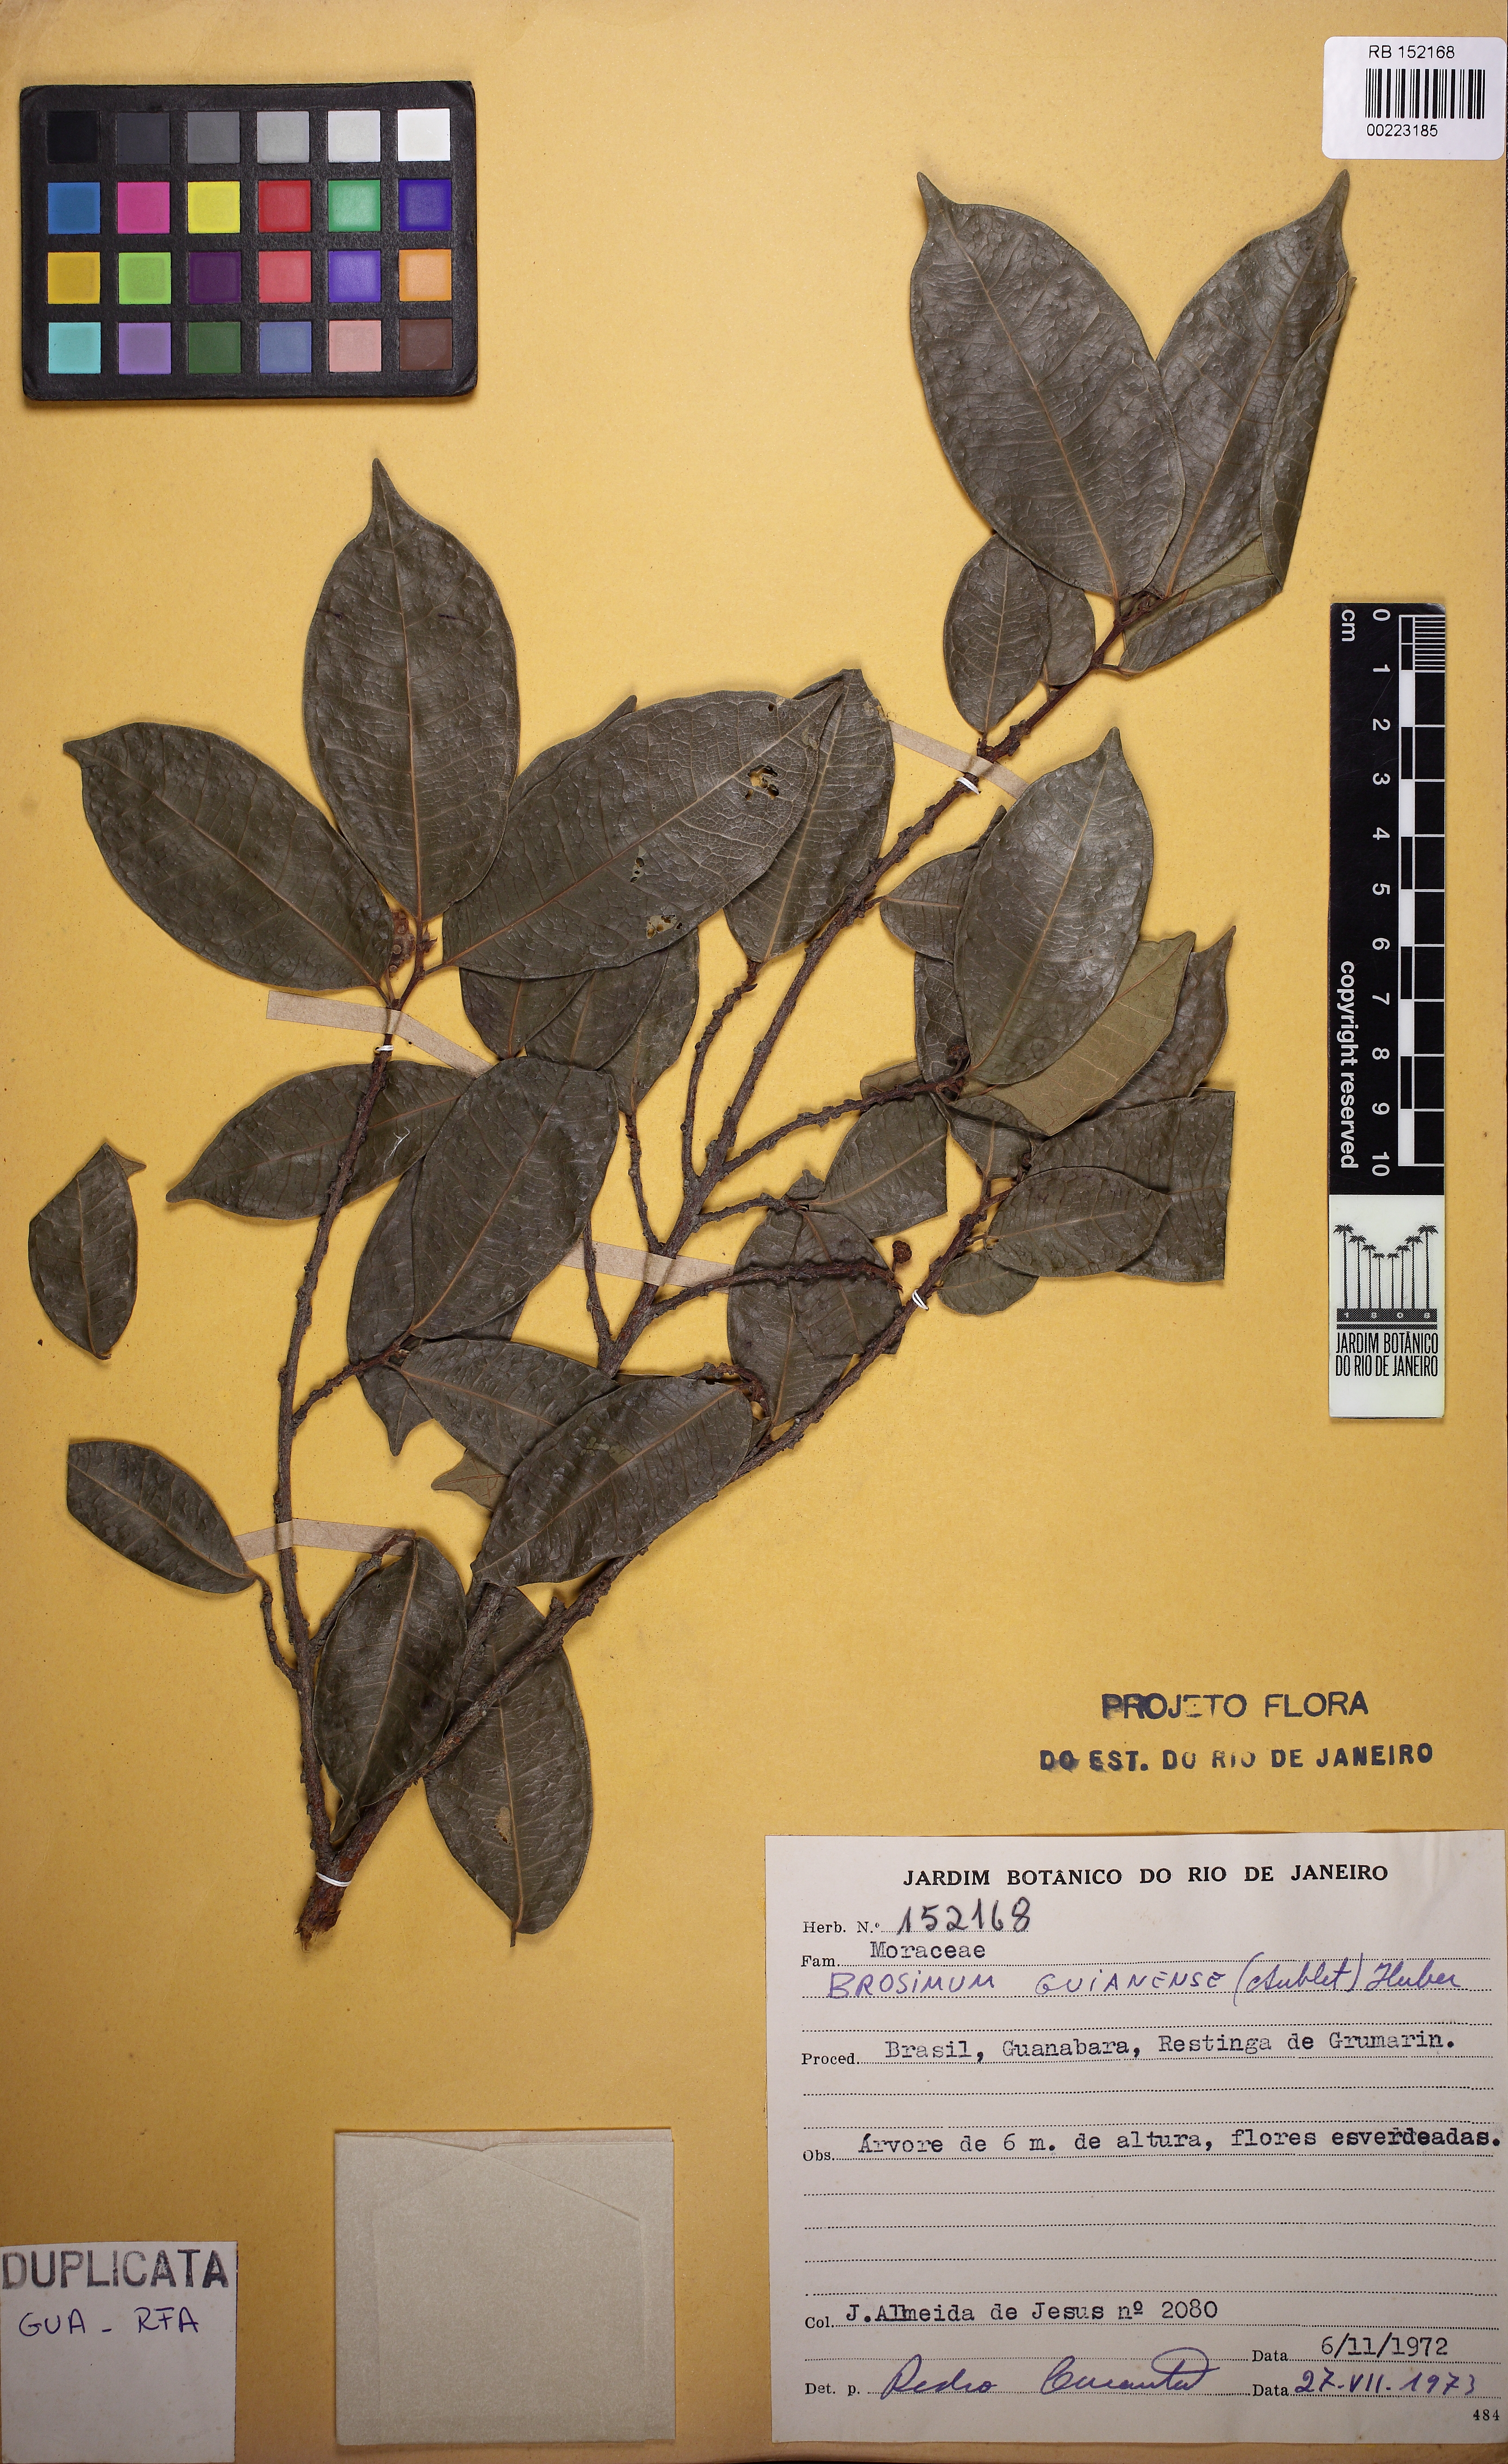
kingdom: Plantae
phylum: Tracheophyta
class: Magnoliopsida
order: Rosales
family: Moraceae
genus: Brosimum
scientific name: Brosimum guianense
